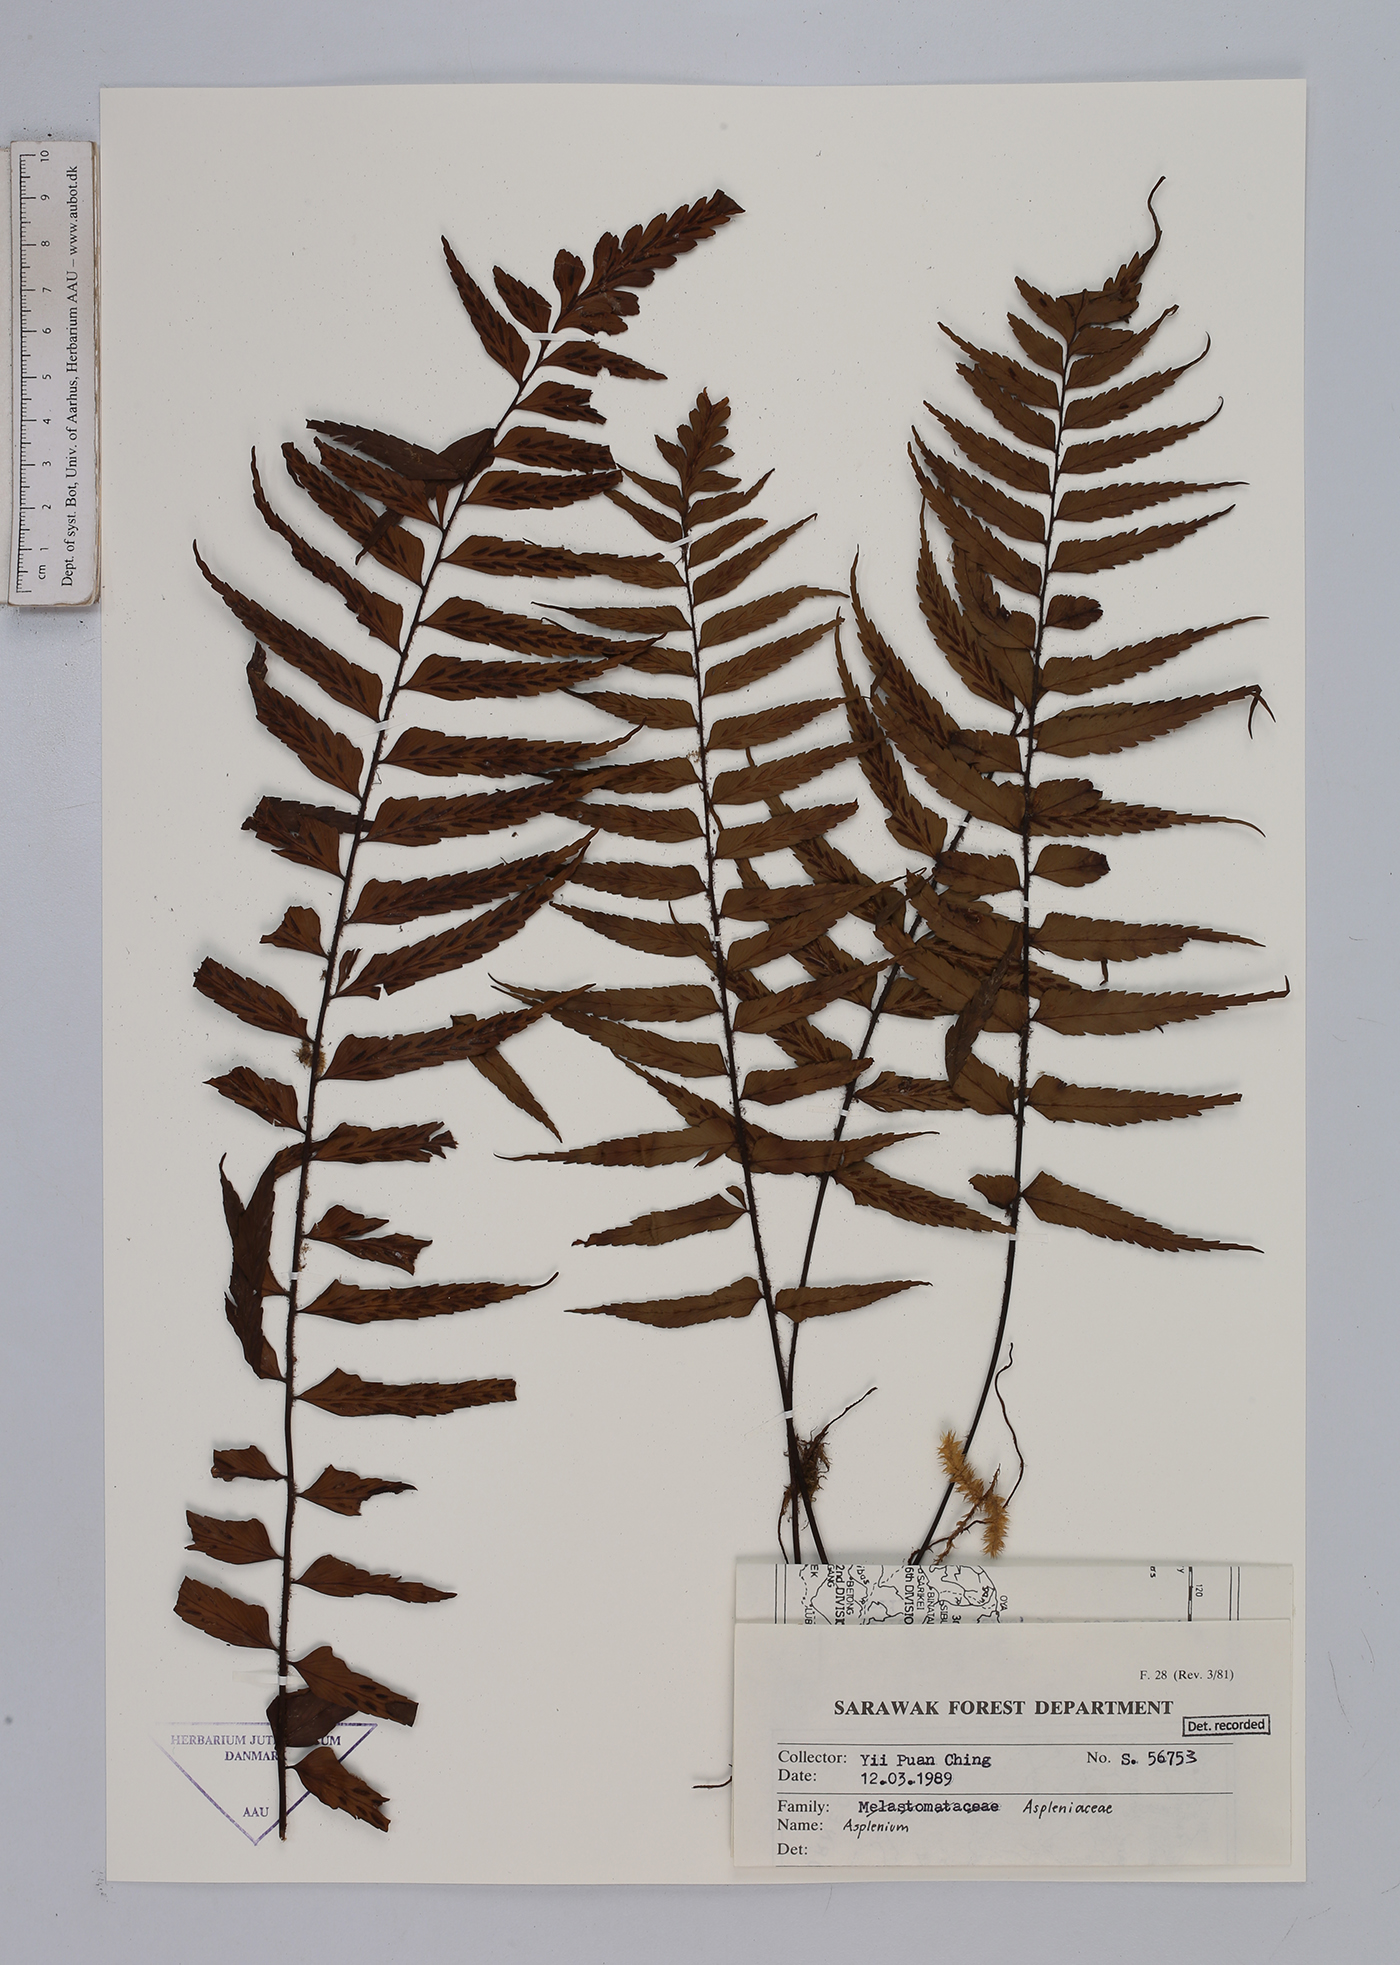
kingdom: Plantae
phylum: Tracheophyta
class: Polypodiopsida
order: Polypodiales
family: Aspleniaceae
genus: Asplenium
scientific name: Asplenium
